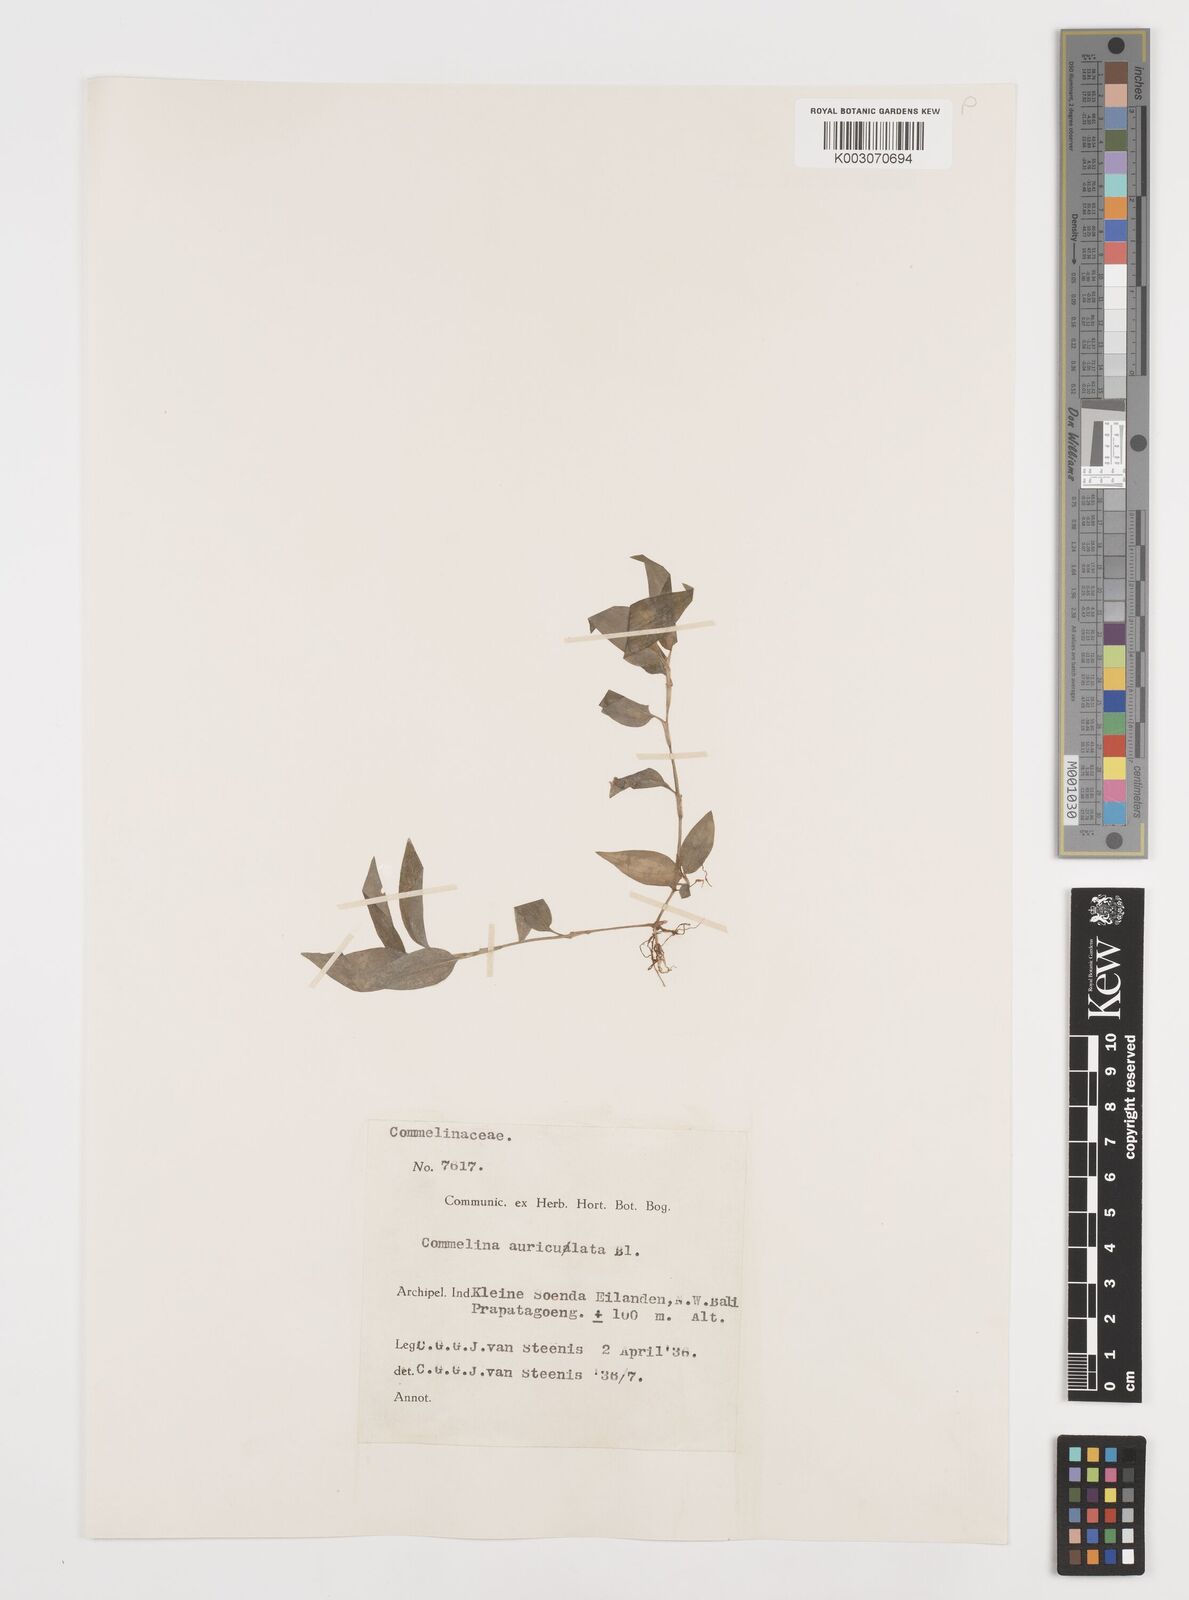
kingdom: Plantae
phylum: Tracheophyta
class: Liliopsida
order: Commelinales
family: Commelinaceae
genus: Commelina
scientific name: Commelina auriculata
